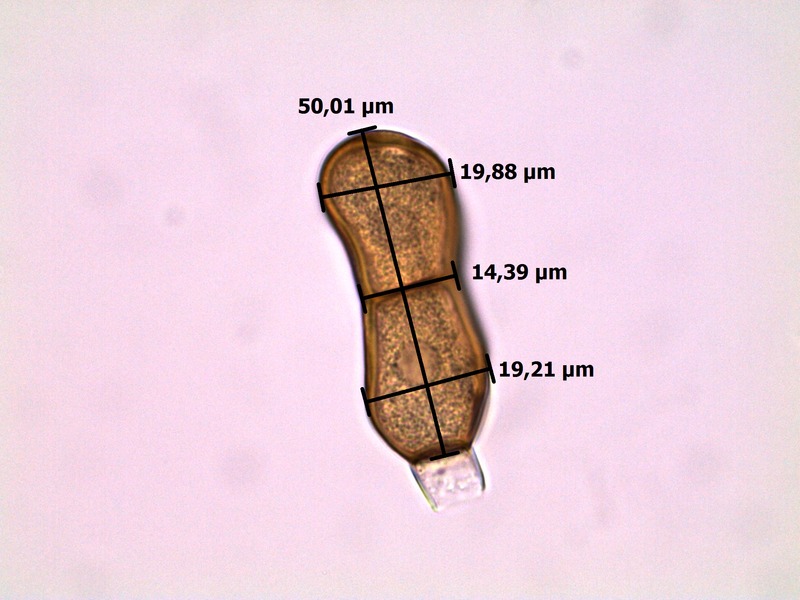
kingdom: Fungi
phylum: Basidiomycota
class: Pucciniomycetes
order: Pucciniales
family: Pucciniaceae
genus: Puccinia
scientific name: Puccinia semadenii
